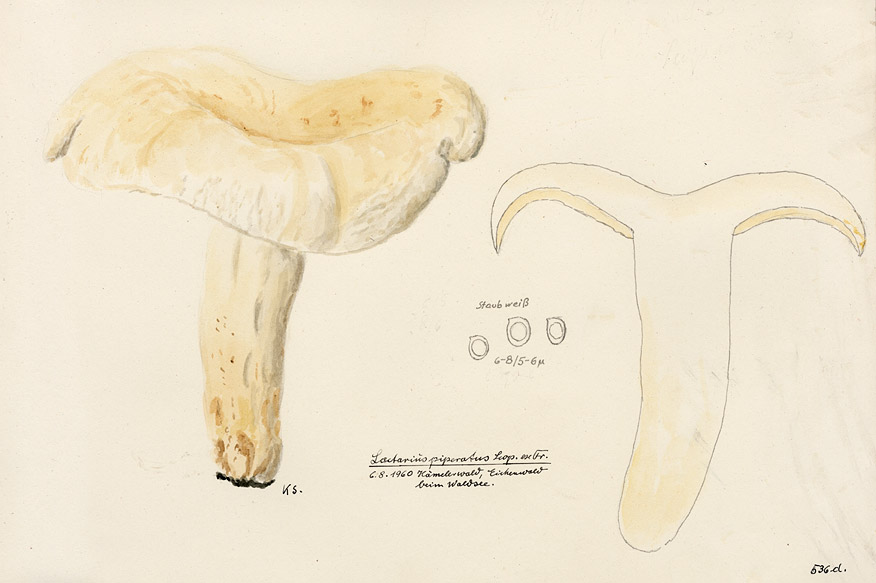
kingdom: Fungi
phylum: Basidiomycota
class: Agaricomycetes
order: Russulales
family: Russulaceae
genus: Lactifluus
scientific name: Lactifluus piperatus
